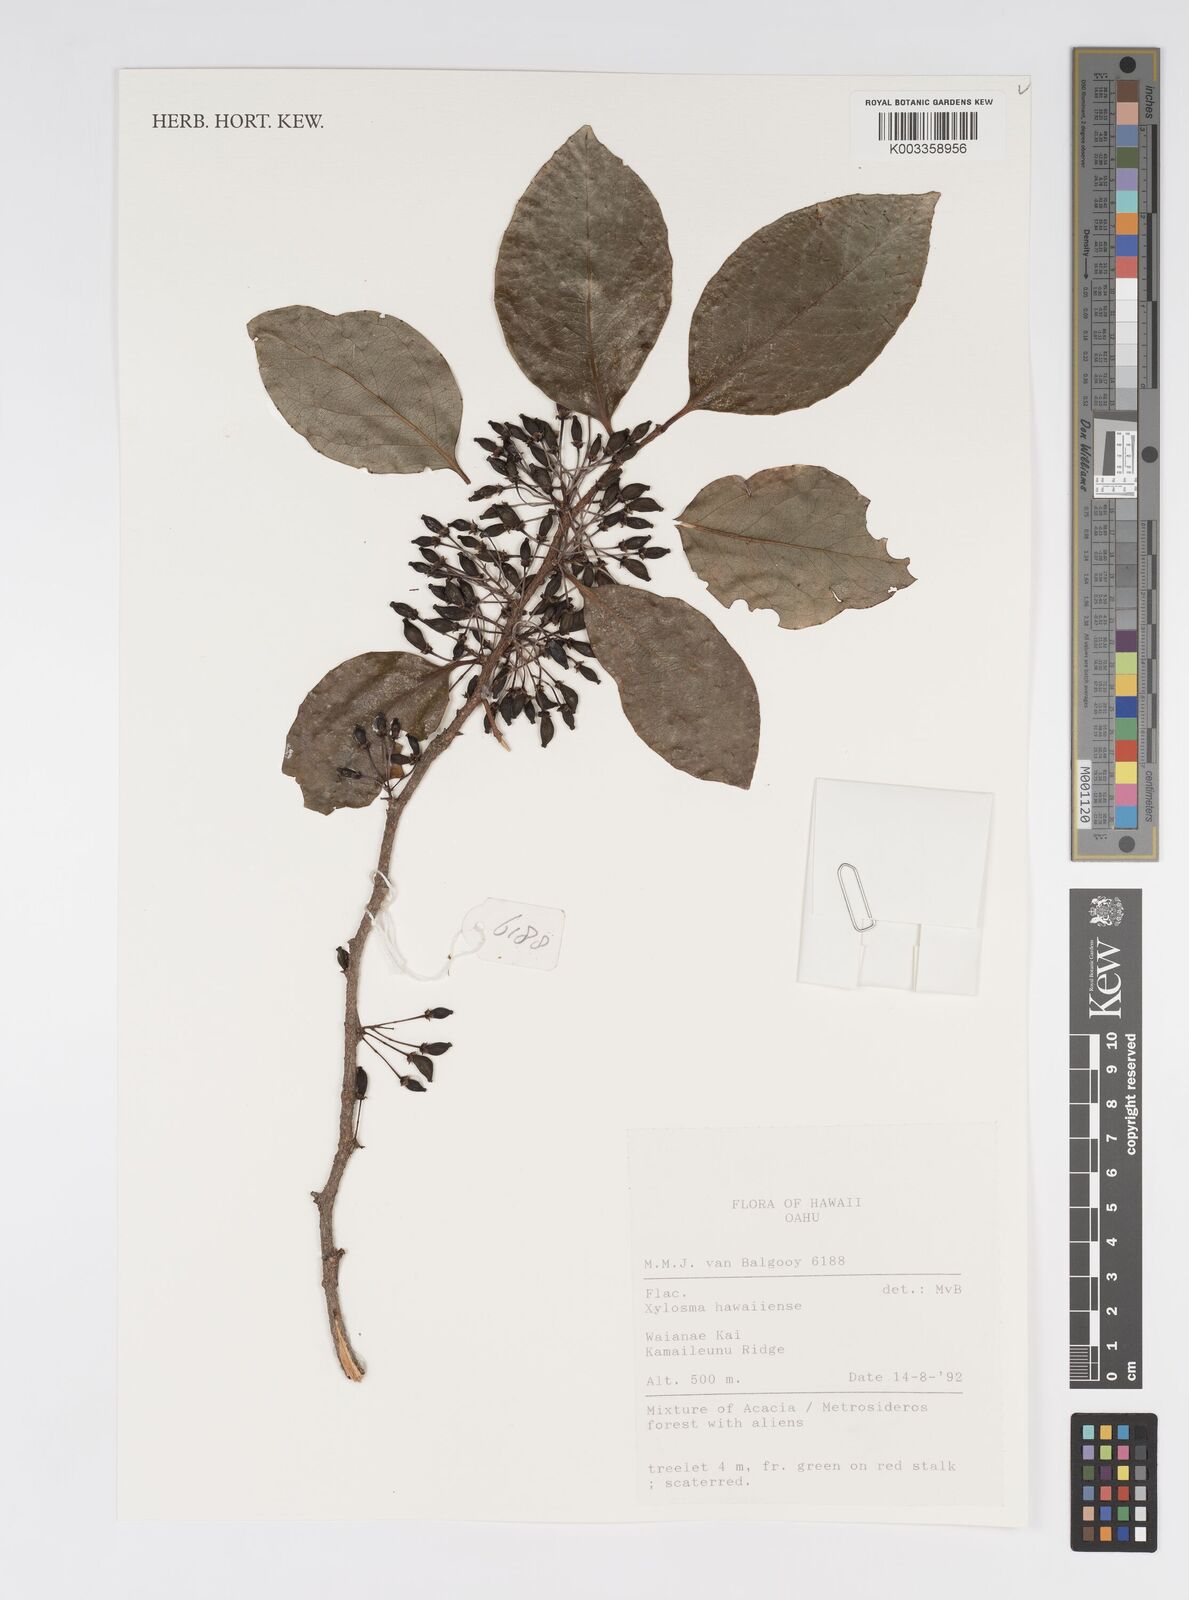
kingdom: Plantae
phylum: Tracheophyta
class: Magnoliopsida
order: Malpighiales
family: Salicaceae
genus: Xylosma
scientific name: Xylosma hawaiense
